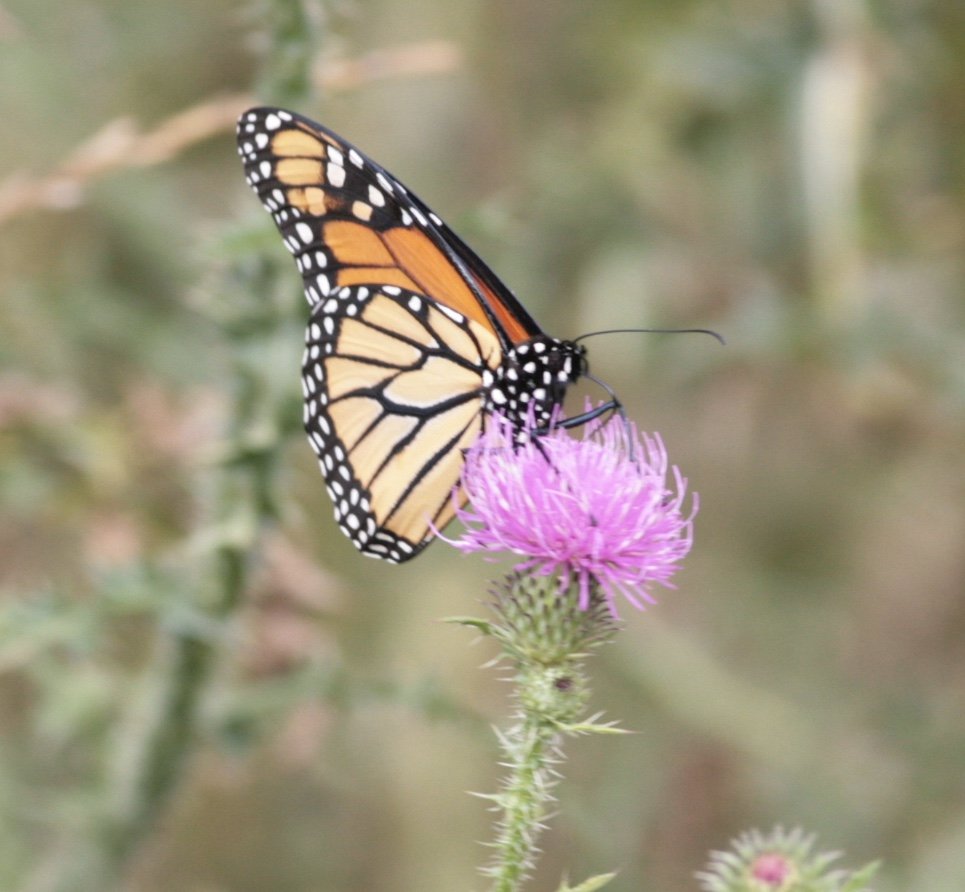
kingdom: Animalia
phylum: Arthropoda
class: Insecta
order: Lepidoptera
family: Nymphalidae
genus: Danaus
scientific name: Danaus plexippus
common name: Monarch
